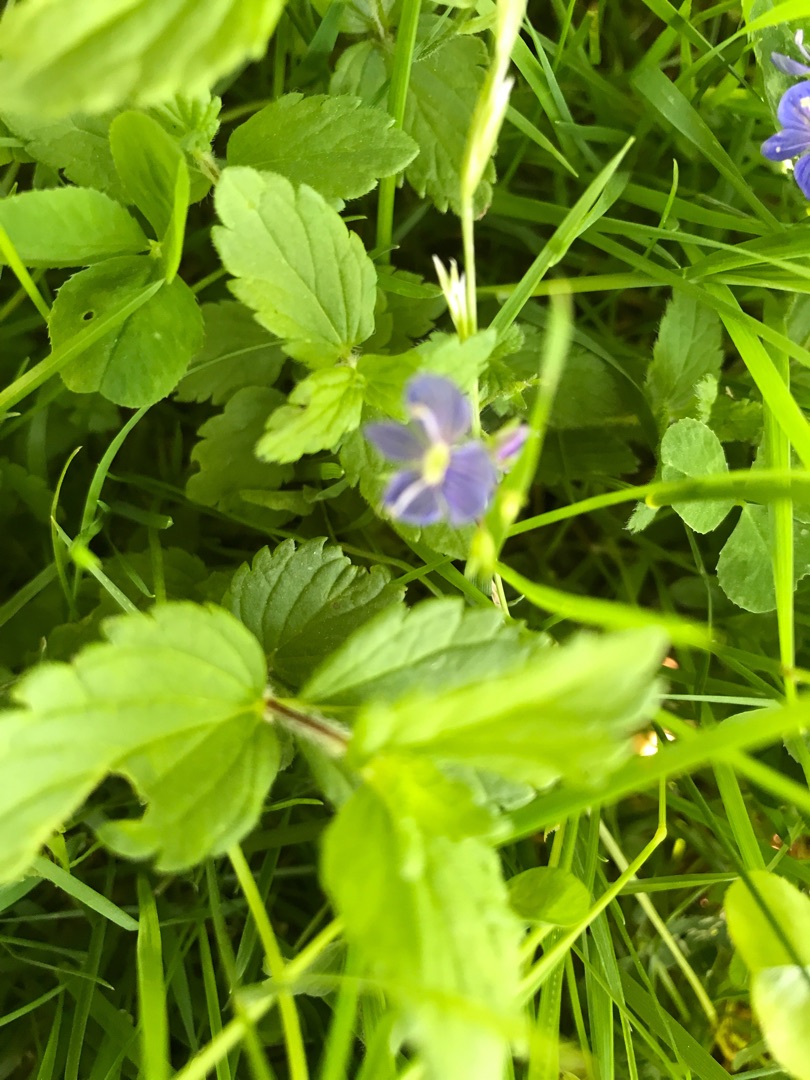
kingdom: Plantae
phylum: Tracheophyta
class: Magnoliopsida
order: Lamiales
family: Plantaginaceae
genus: Veronica
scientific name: Veronica chamaedrys
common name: Tveskægget ærenpris
